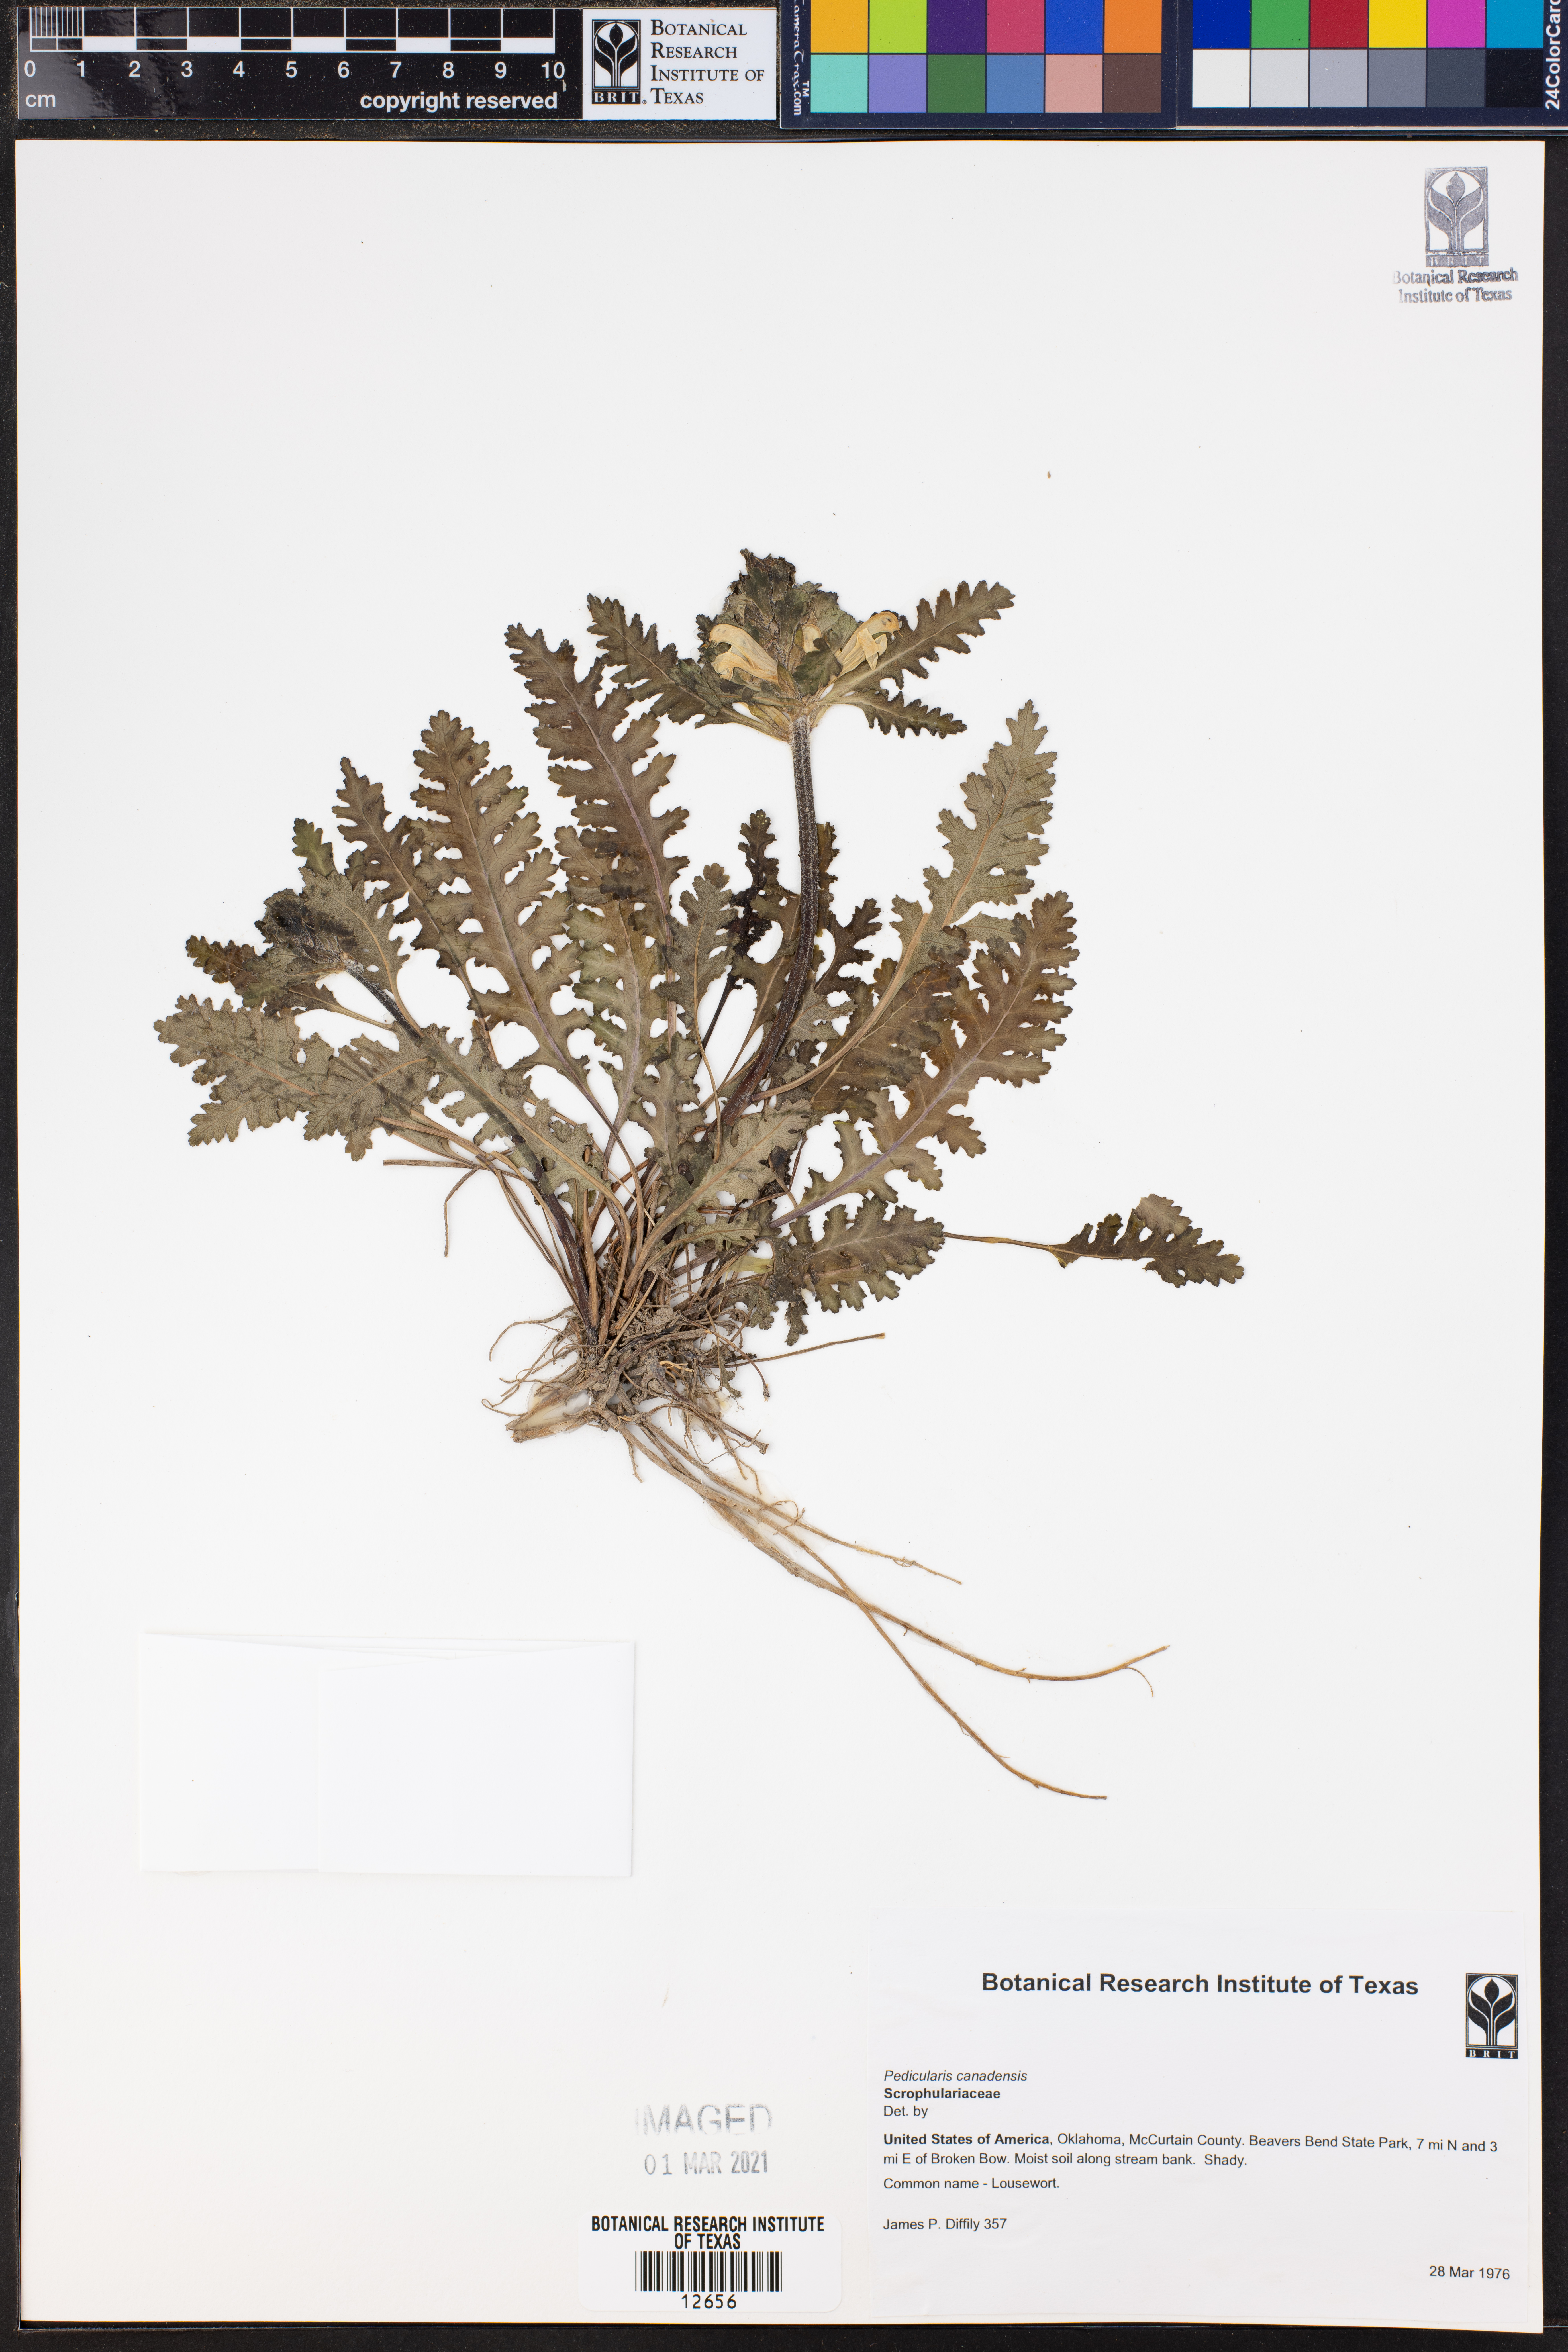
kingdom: Plantae
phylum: Tracheophyta
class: Magnoliopsida
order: Lamiales
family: Orobanchaceae
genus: Pedicularis
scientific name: Pedicularis canadensis
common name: Early lousewort
